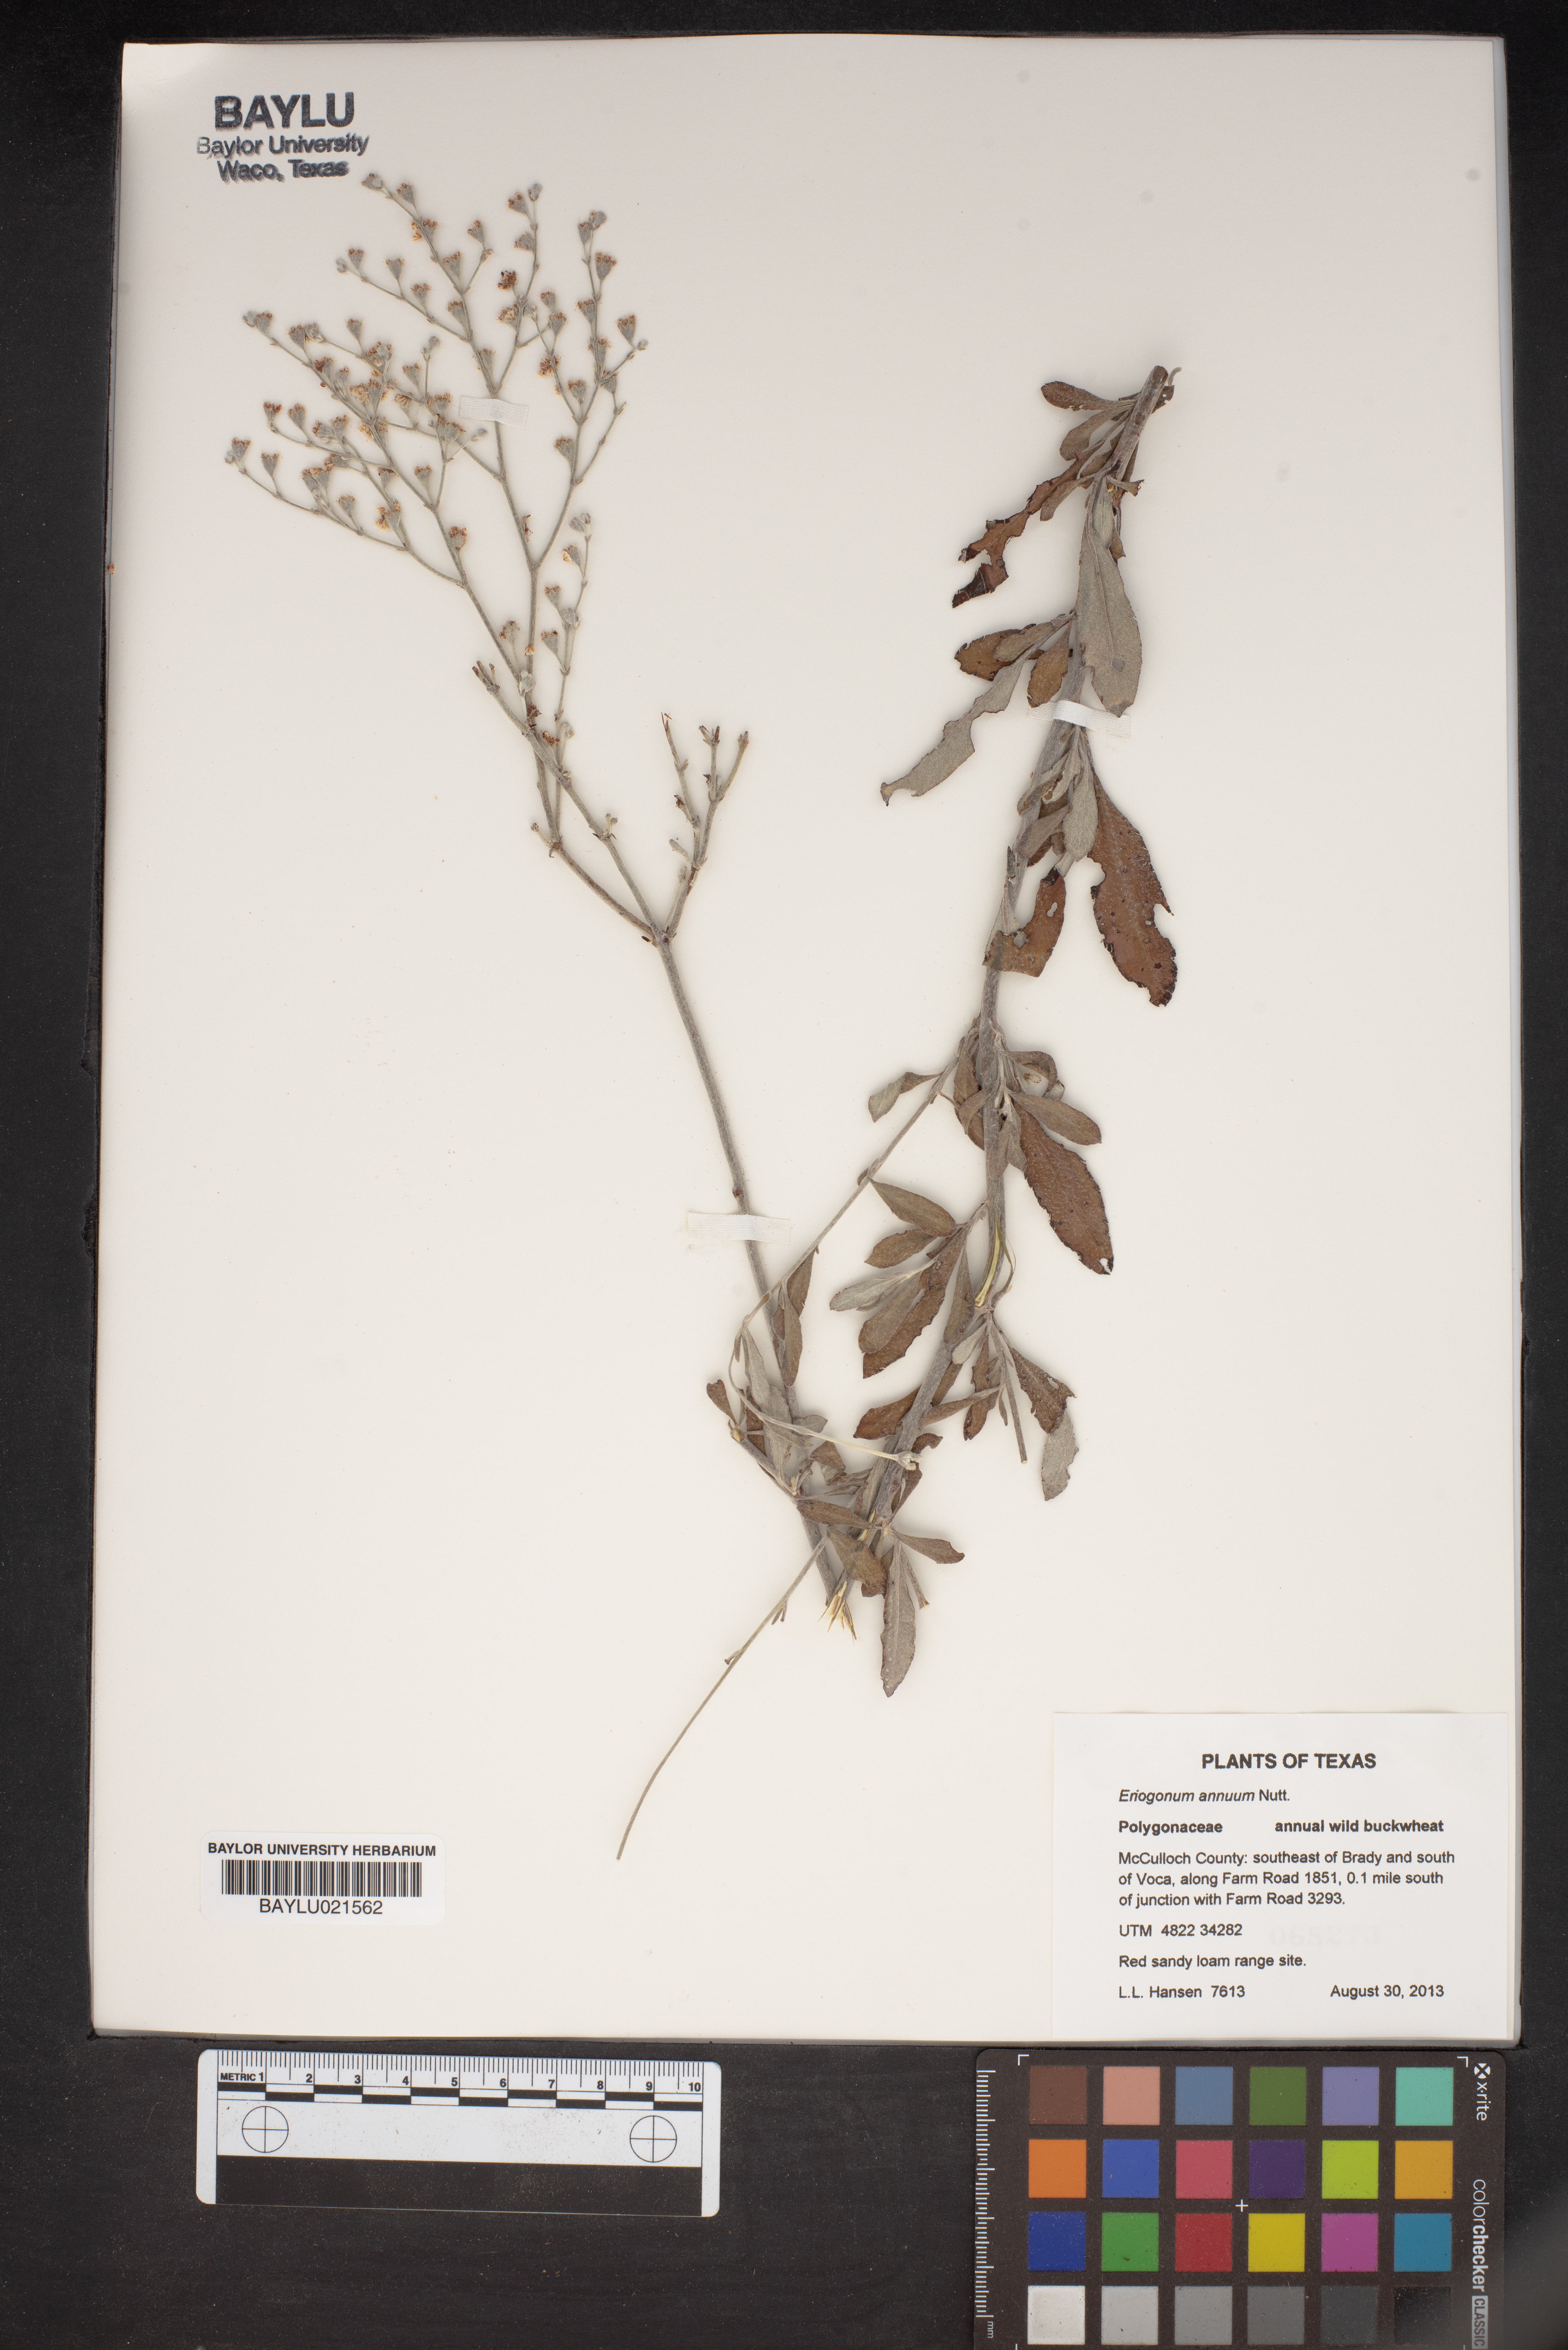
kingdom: Plantae
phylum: Tracheophyta
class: Magnoliopsida
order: Caryophyllales
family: Polygonaceae
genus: Eriogonum
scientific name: Eriogonum annuum
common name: Annual wild buckwheat
